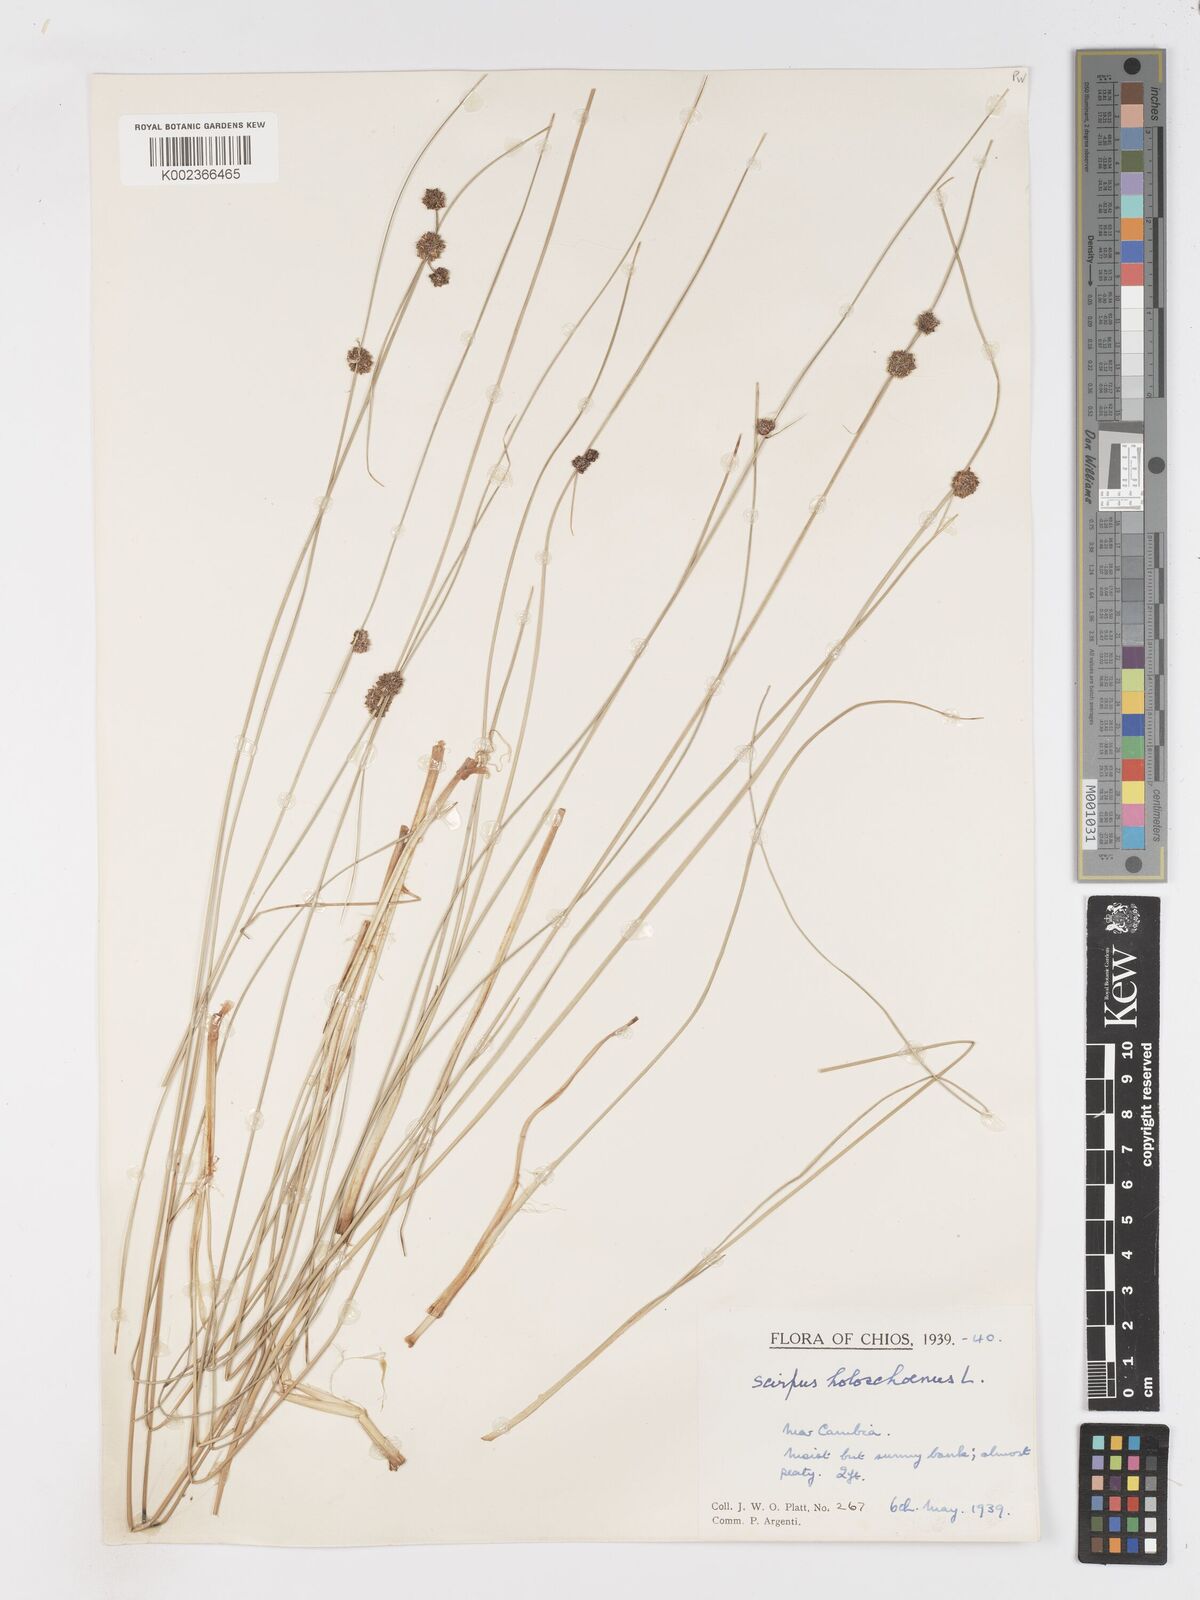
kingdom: Plantae
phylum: Tracheophyta
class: Liliopsida
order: Poales
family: Cyperaceae
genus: Scirpoides
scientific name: Scirpoides holoschoenus
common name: Round-headed club-rush
